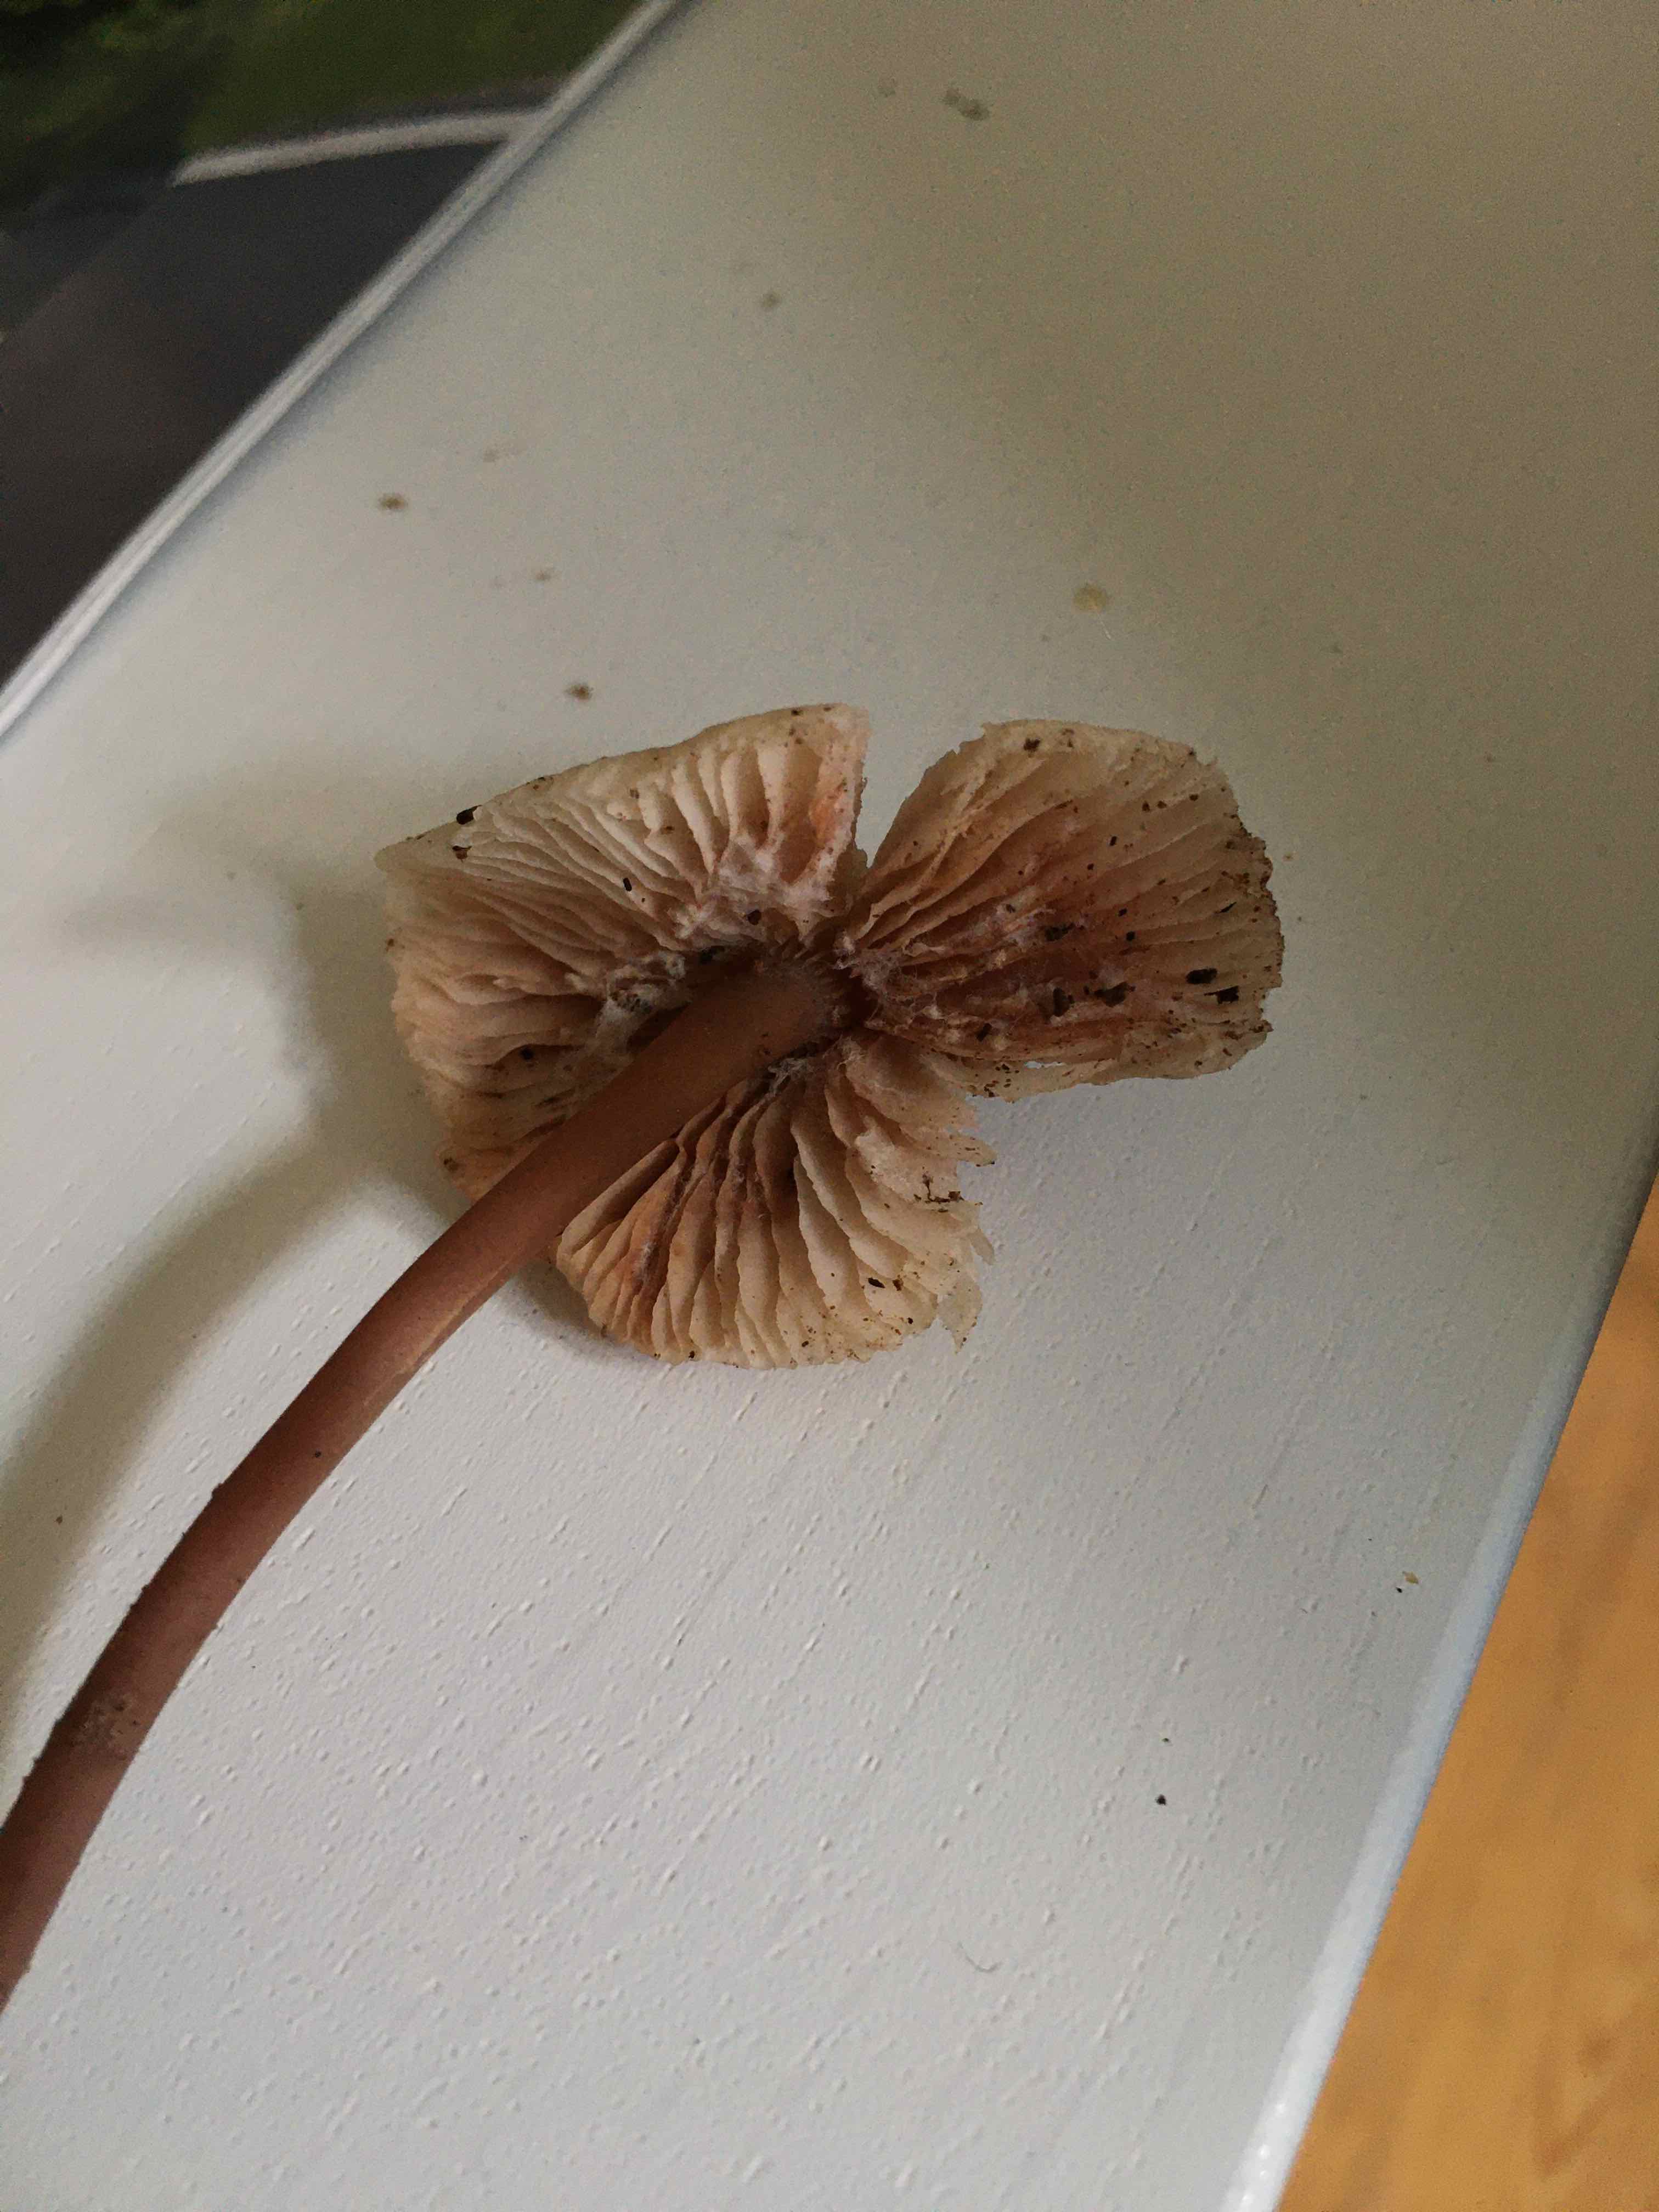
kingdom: Fungi
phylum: Basidiomycota
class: Agaricomycetes
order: Agaricales
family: Mycenaceae
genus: Mycena
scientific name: Mycena galericulata
